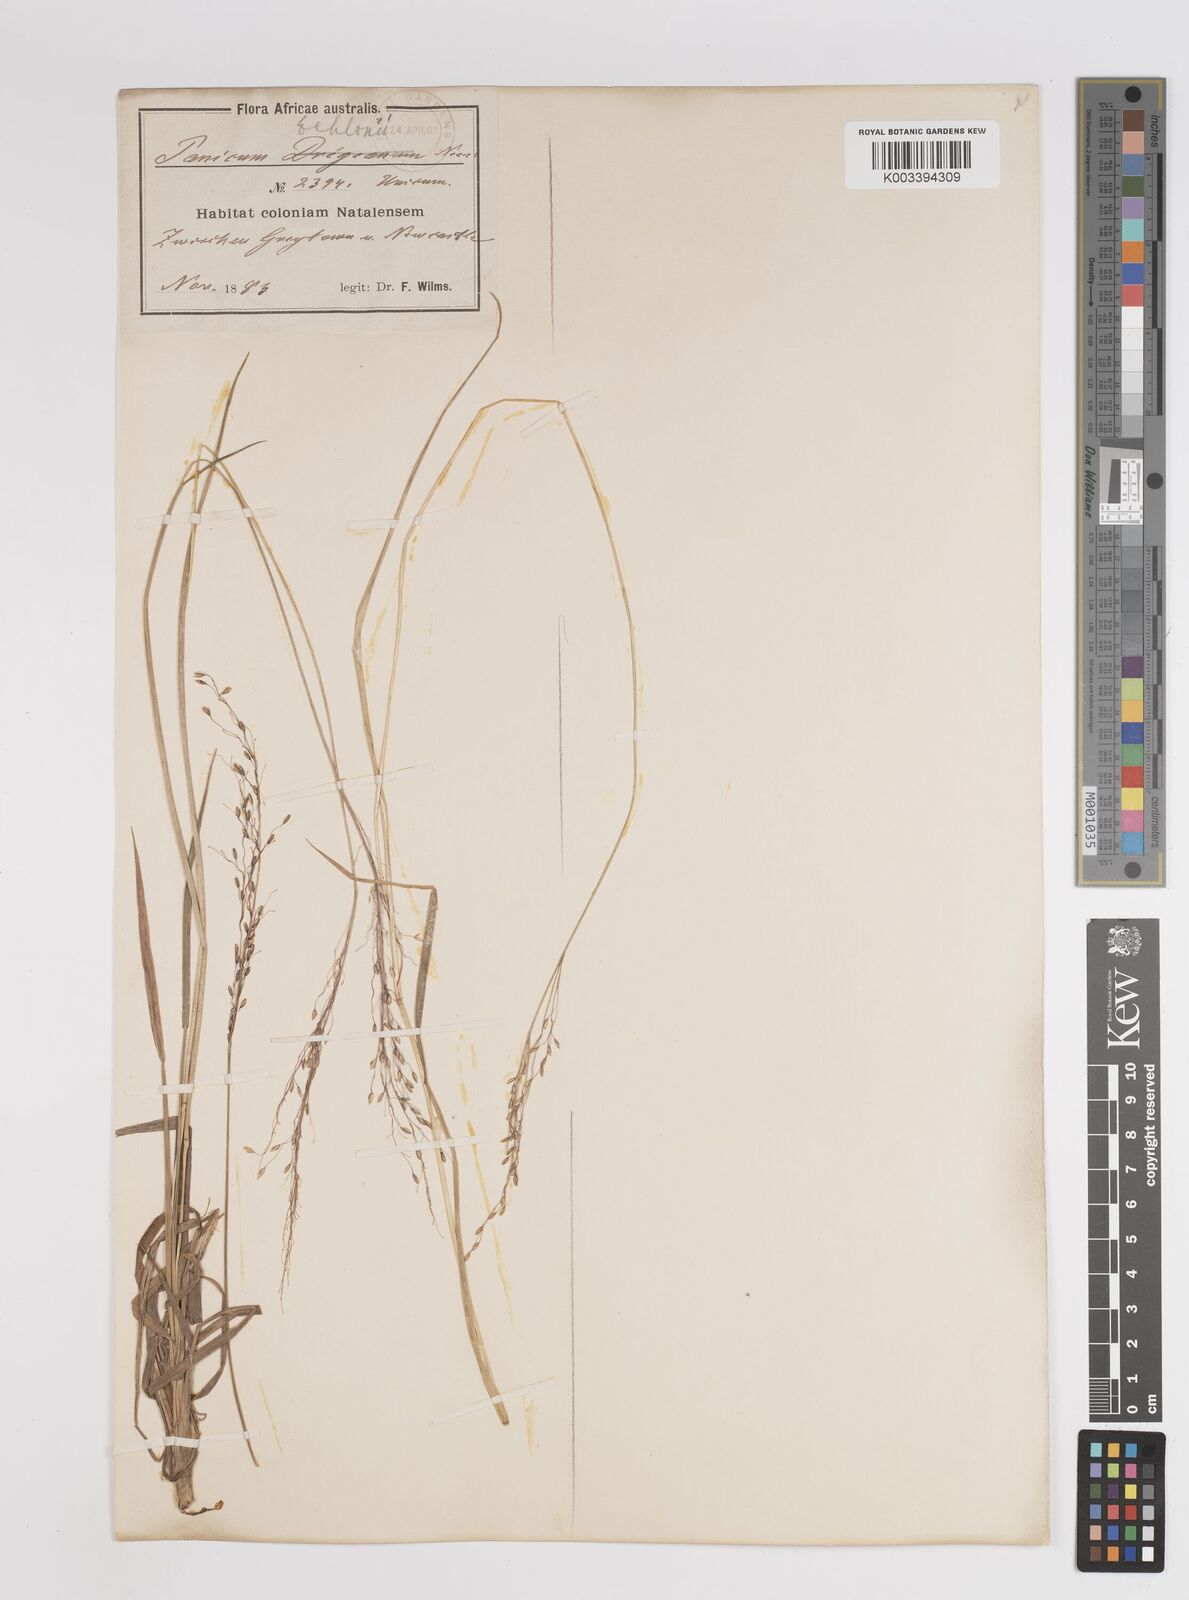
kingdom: Plantae
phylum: Tracheophyta
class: Liliopsida
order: Poales
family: Poaceae
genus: Adenochloa
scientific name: Adenochloa ecklonii
